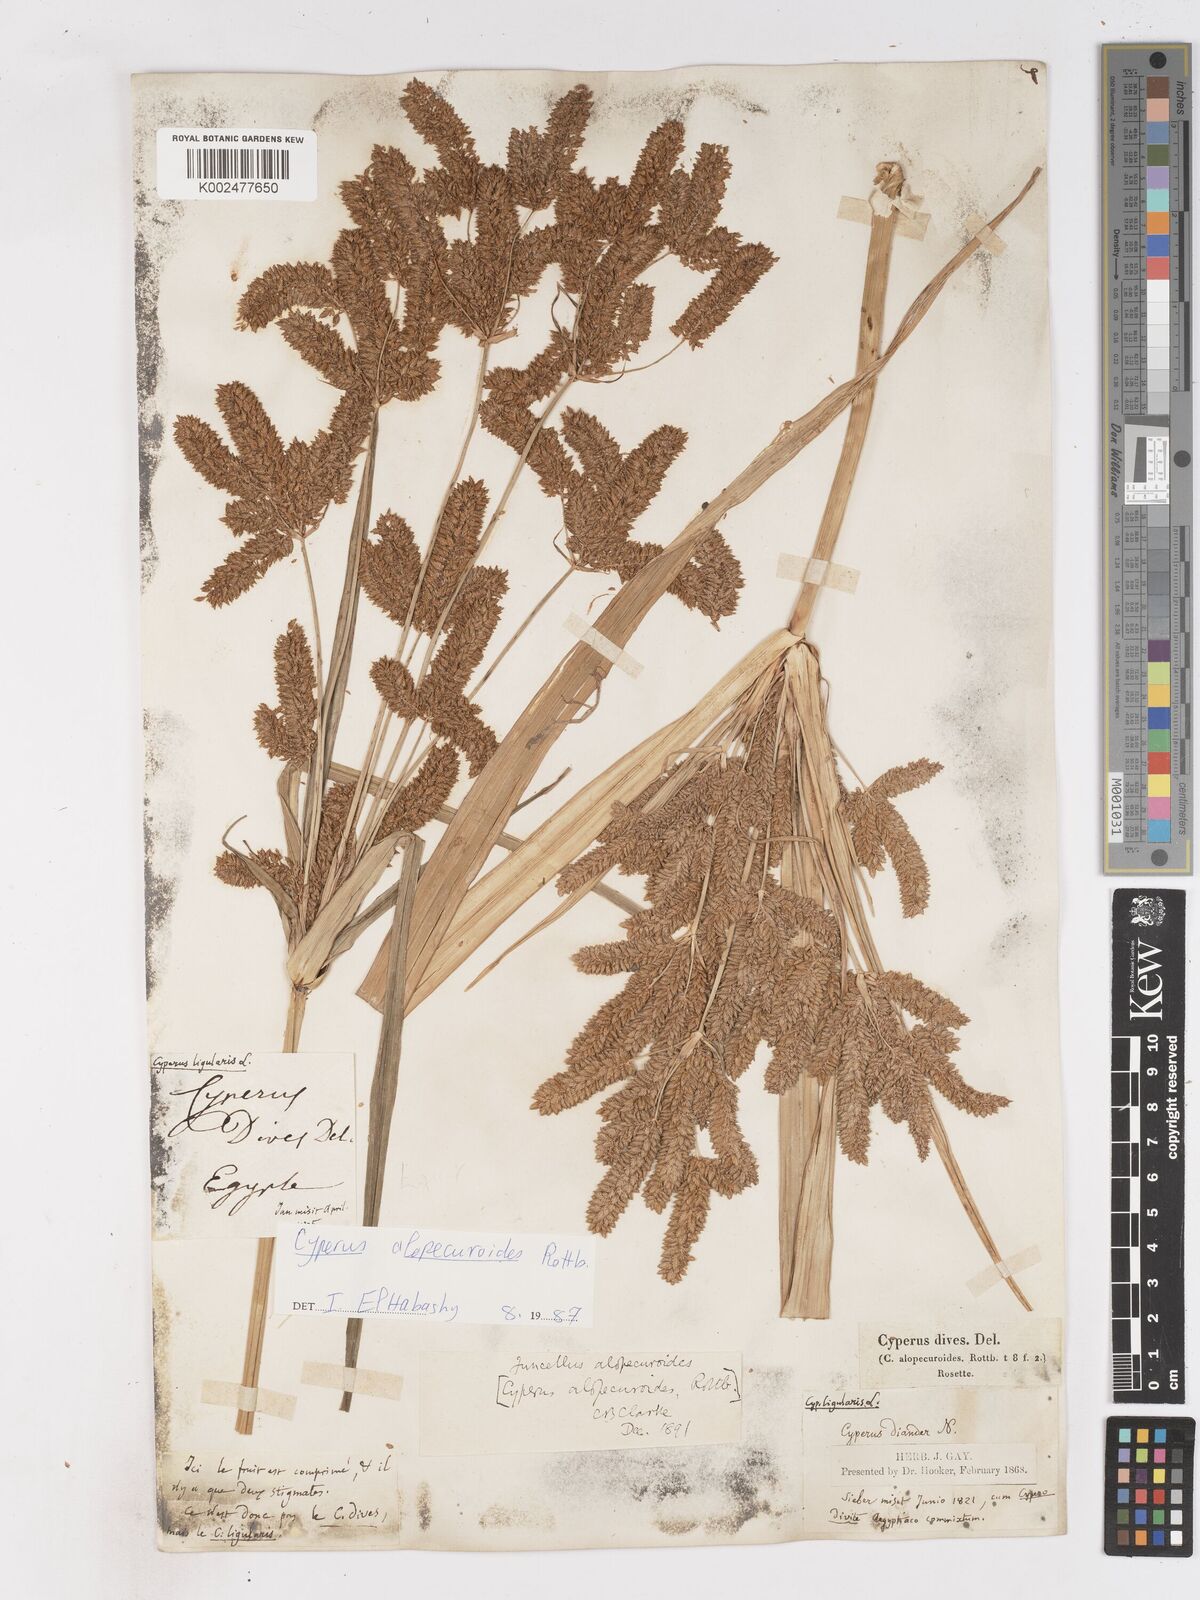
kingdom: Plantae
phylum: Tracheophyta
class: Liliopsida
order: Poales
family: Cyperaceae
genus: Cyperus
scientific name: Cyperus alopecuroides
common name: Foxtail flatsedge
